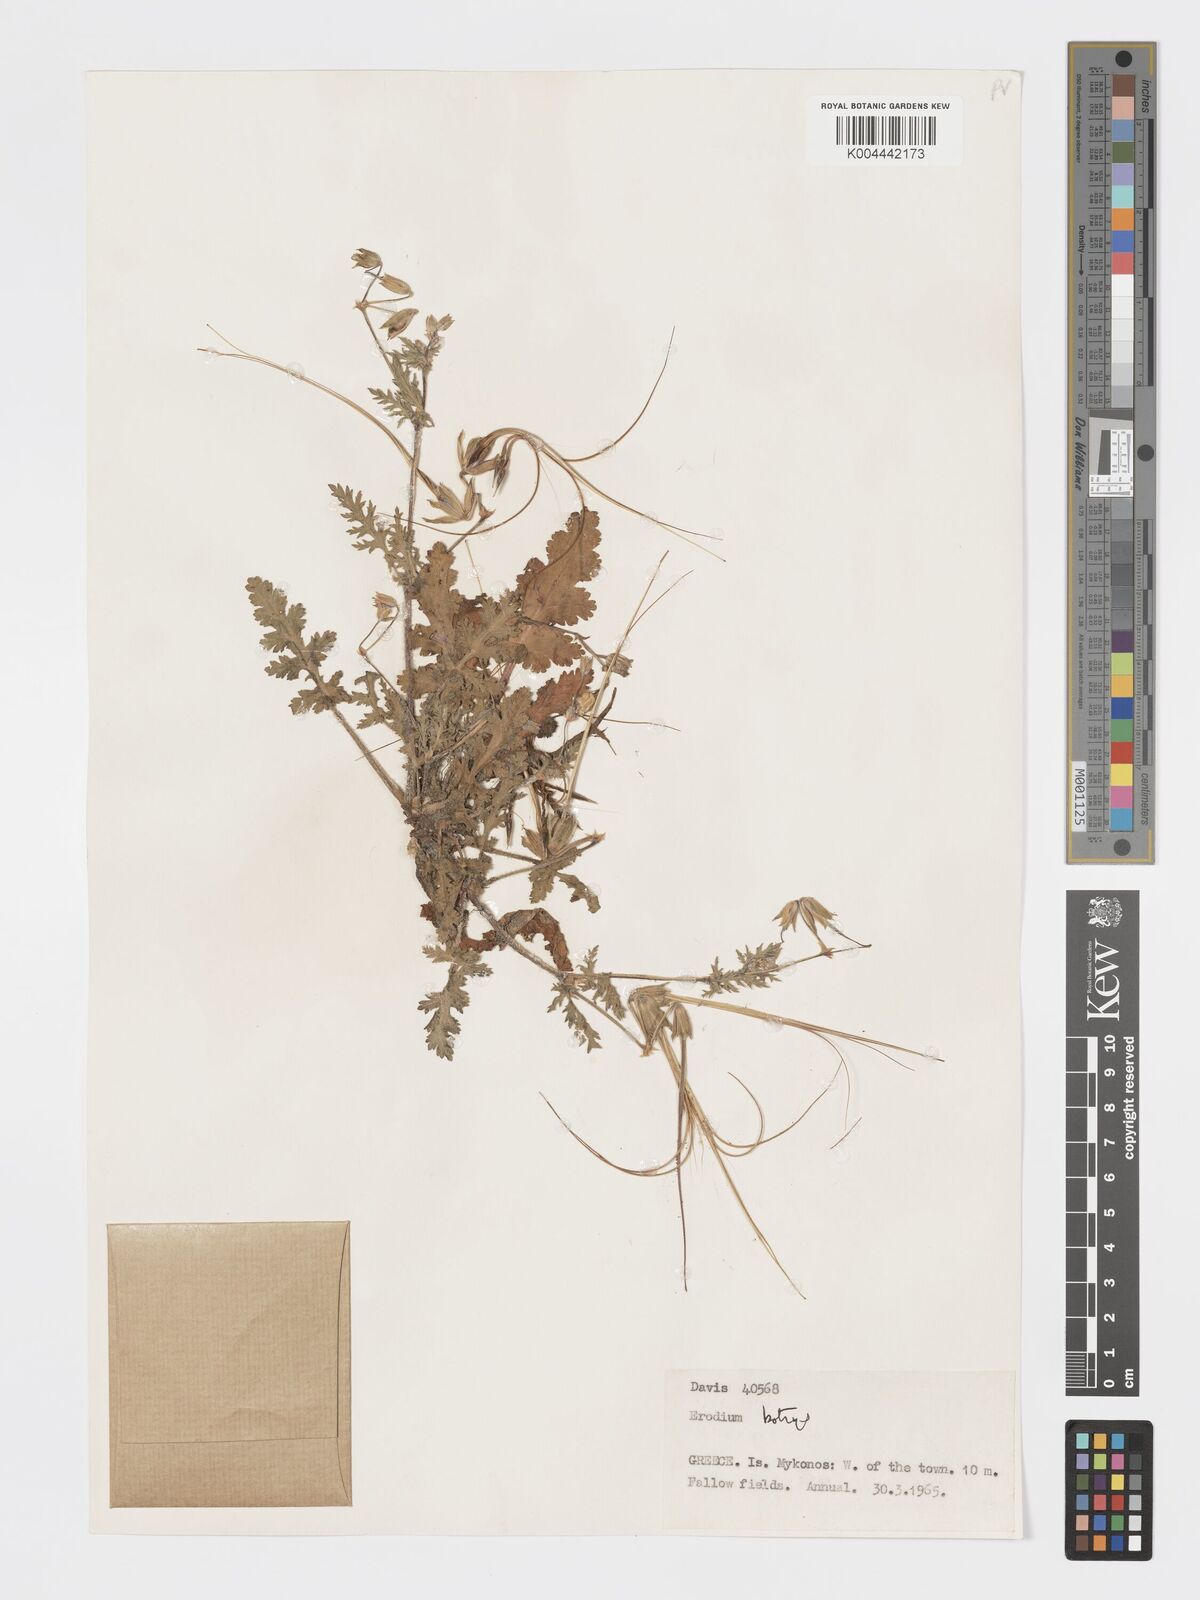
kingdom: Plantae
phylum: Tracheophyta
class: Magnoliopsida
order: Geraniales
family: Geraniaceae
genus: Erodium
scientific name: Erodium
